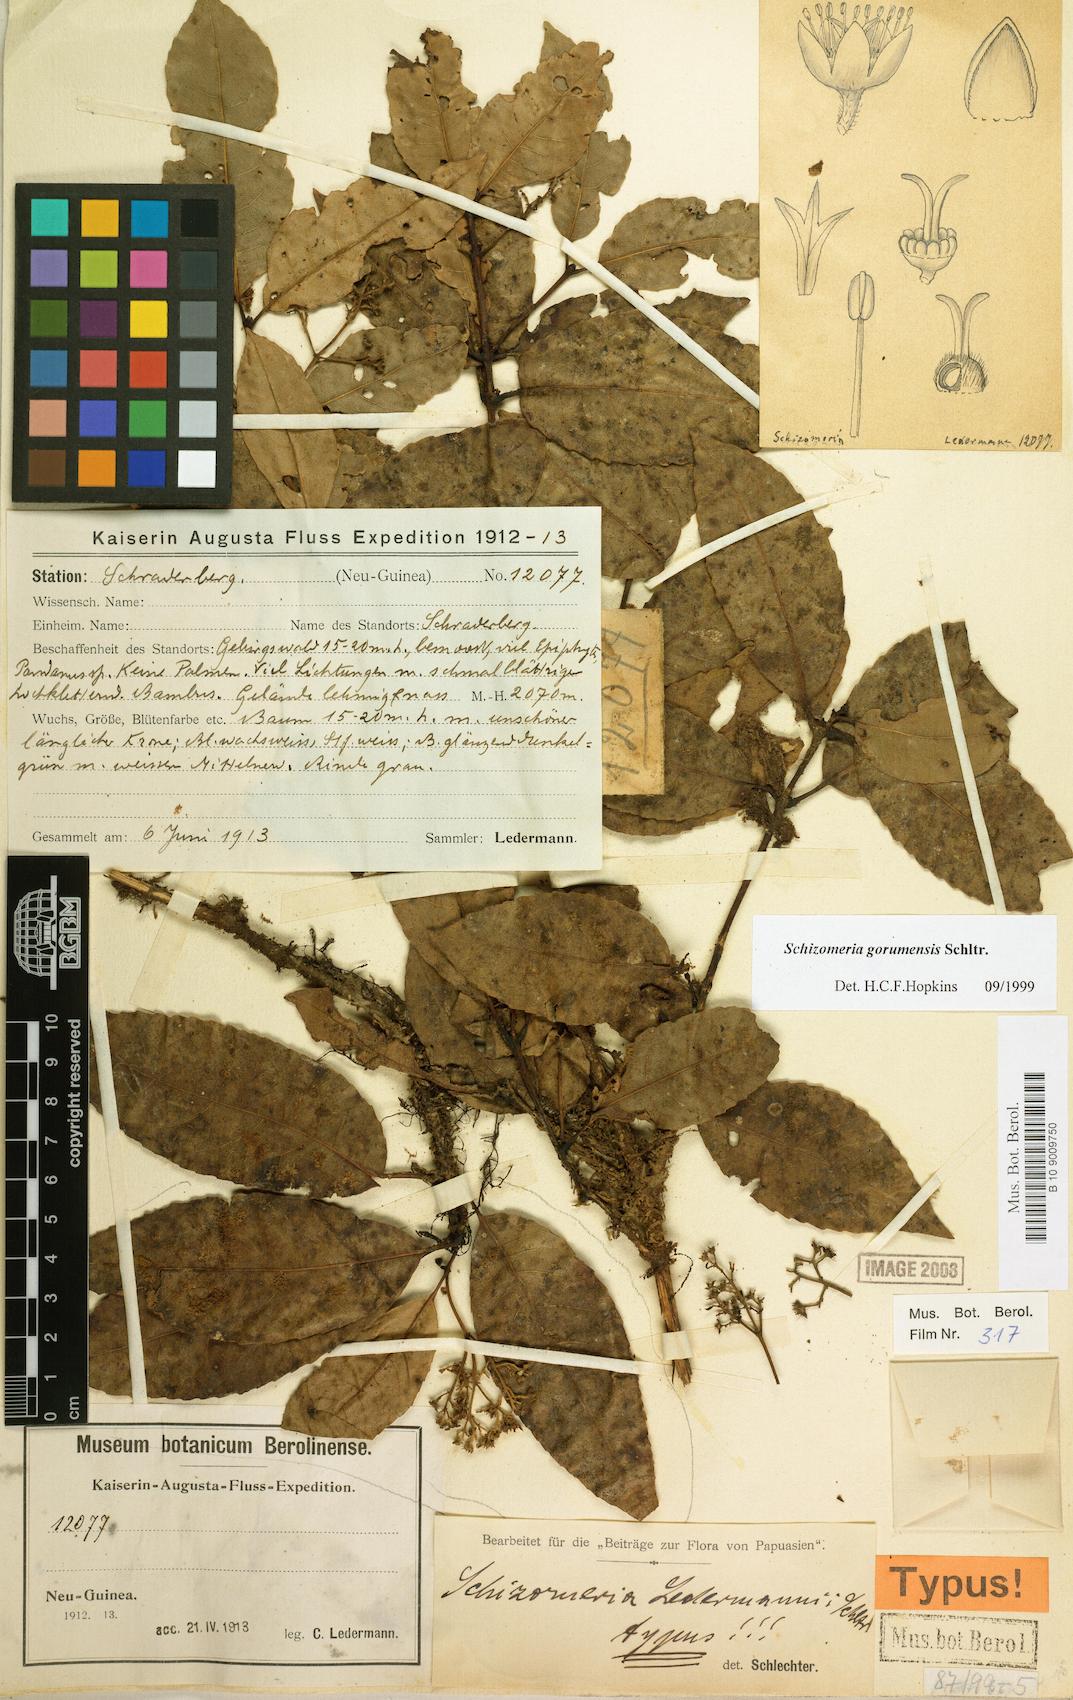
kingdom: Plantae
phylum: Tracheophyta
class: Magnoliopsida
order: Oxalidales
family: Cunoniaceae
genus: Schizomeria
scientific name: Schizomeria gorumensis
